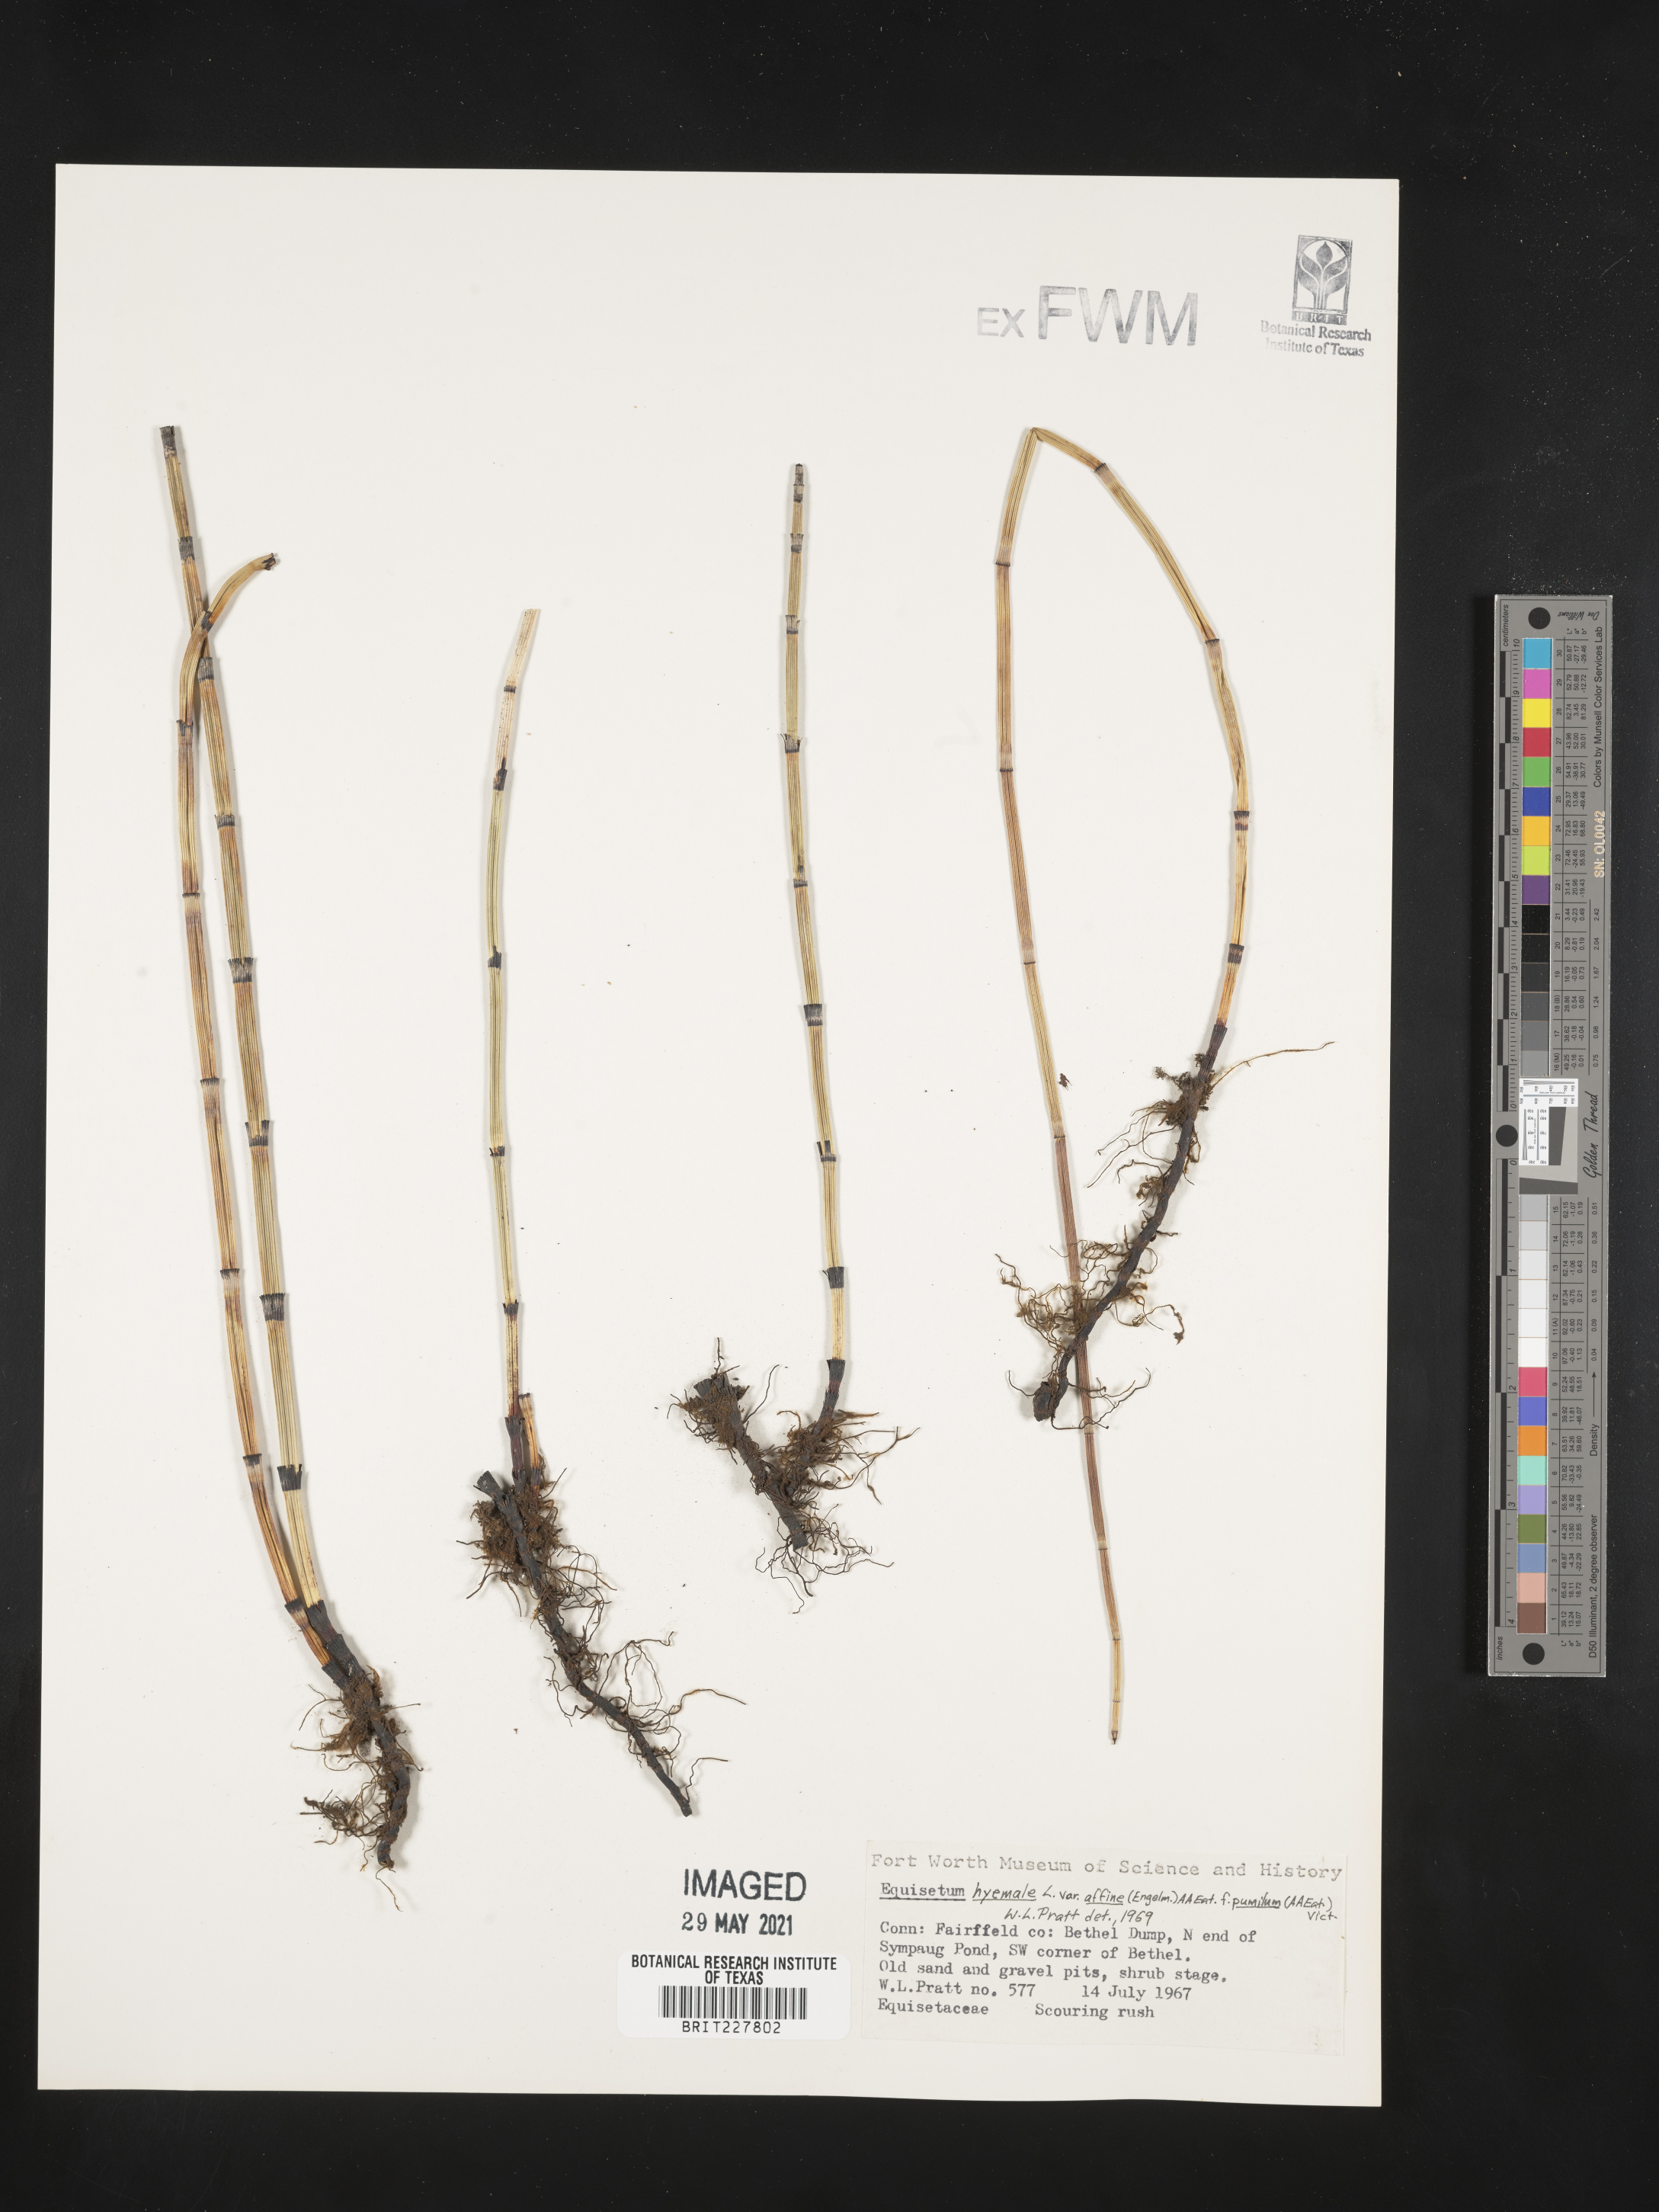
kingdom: Plantae
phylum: Tracheophyta
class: Polypodiopsida
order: Equisetales
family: Equisetaceae
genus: Equisetum
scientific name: Equisetum hyemale
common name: Rough horsetail
